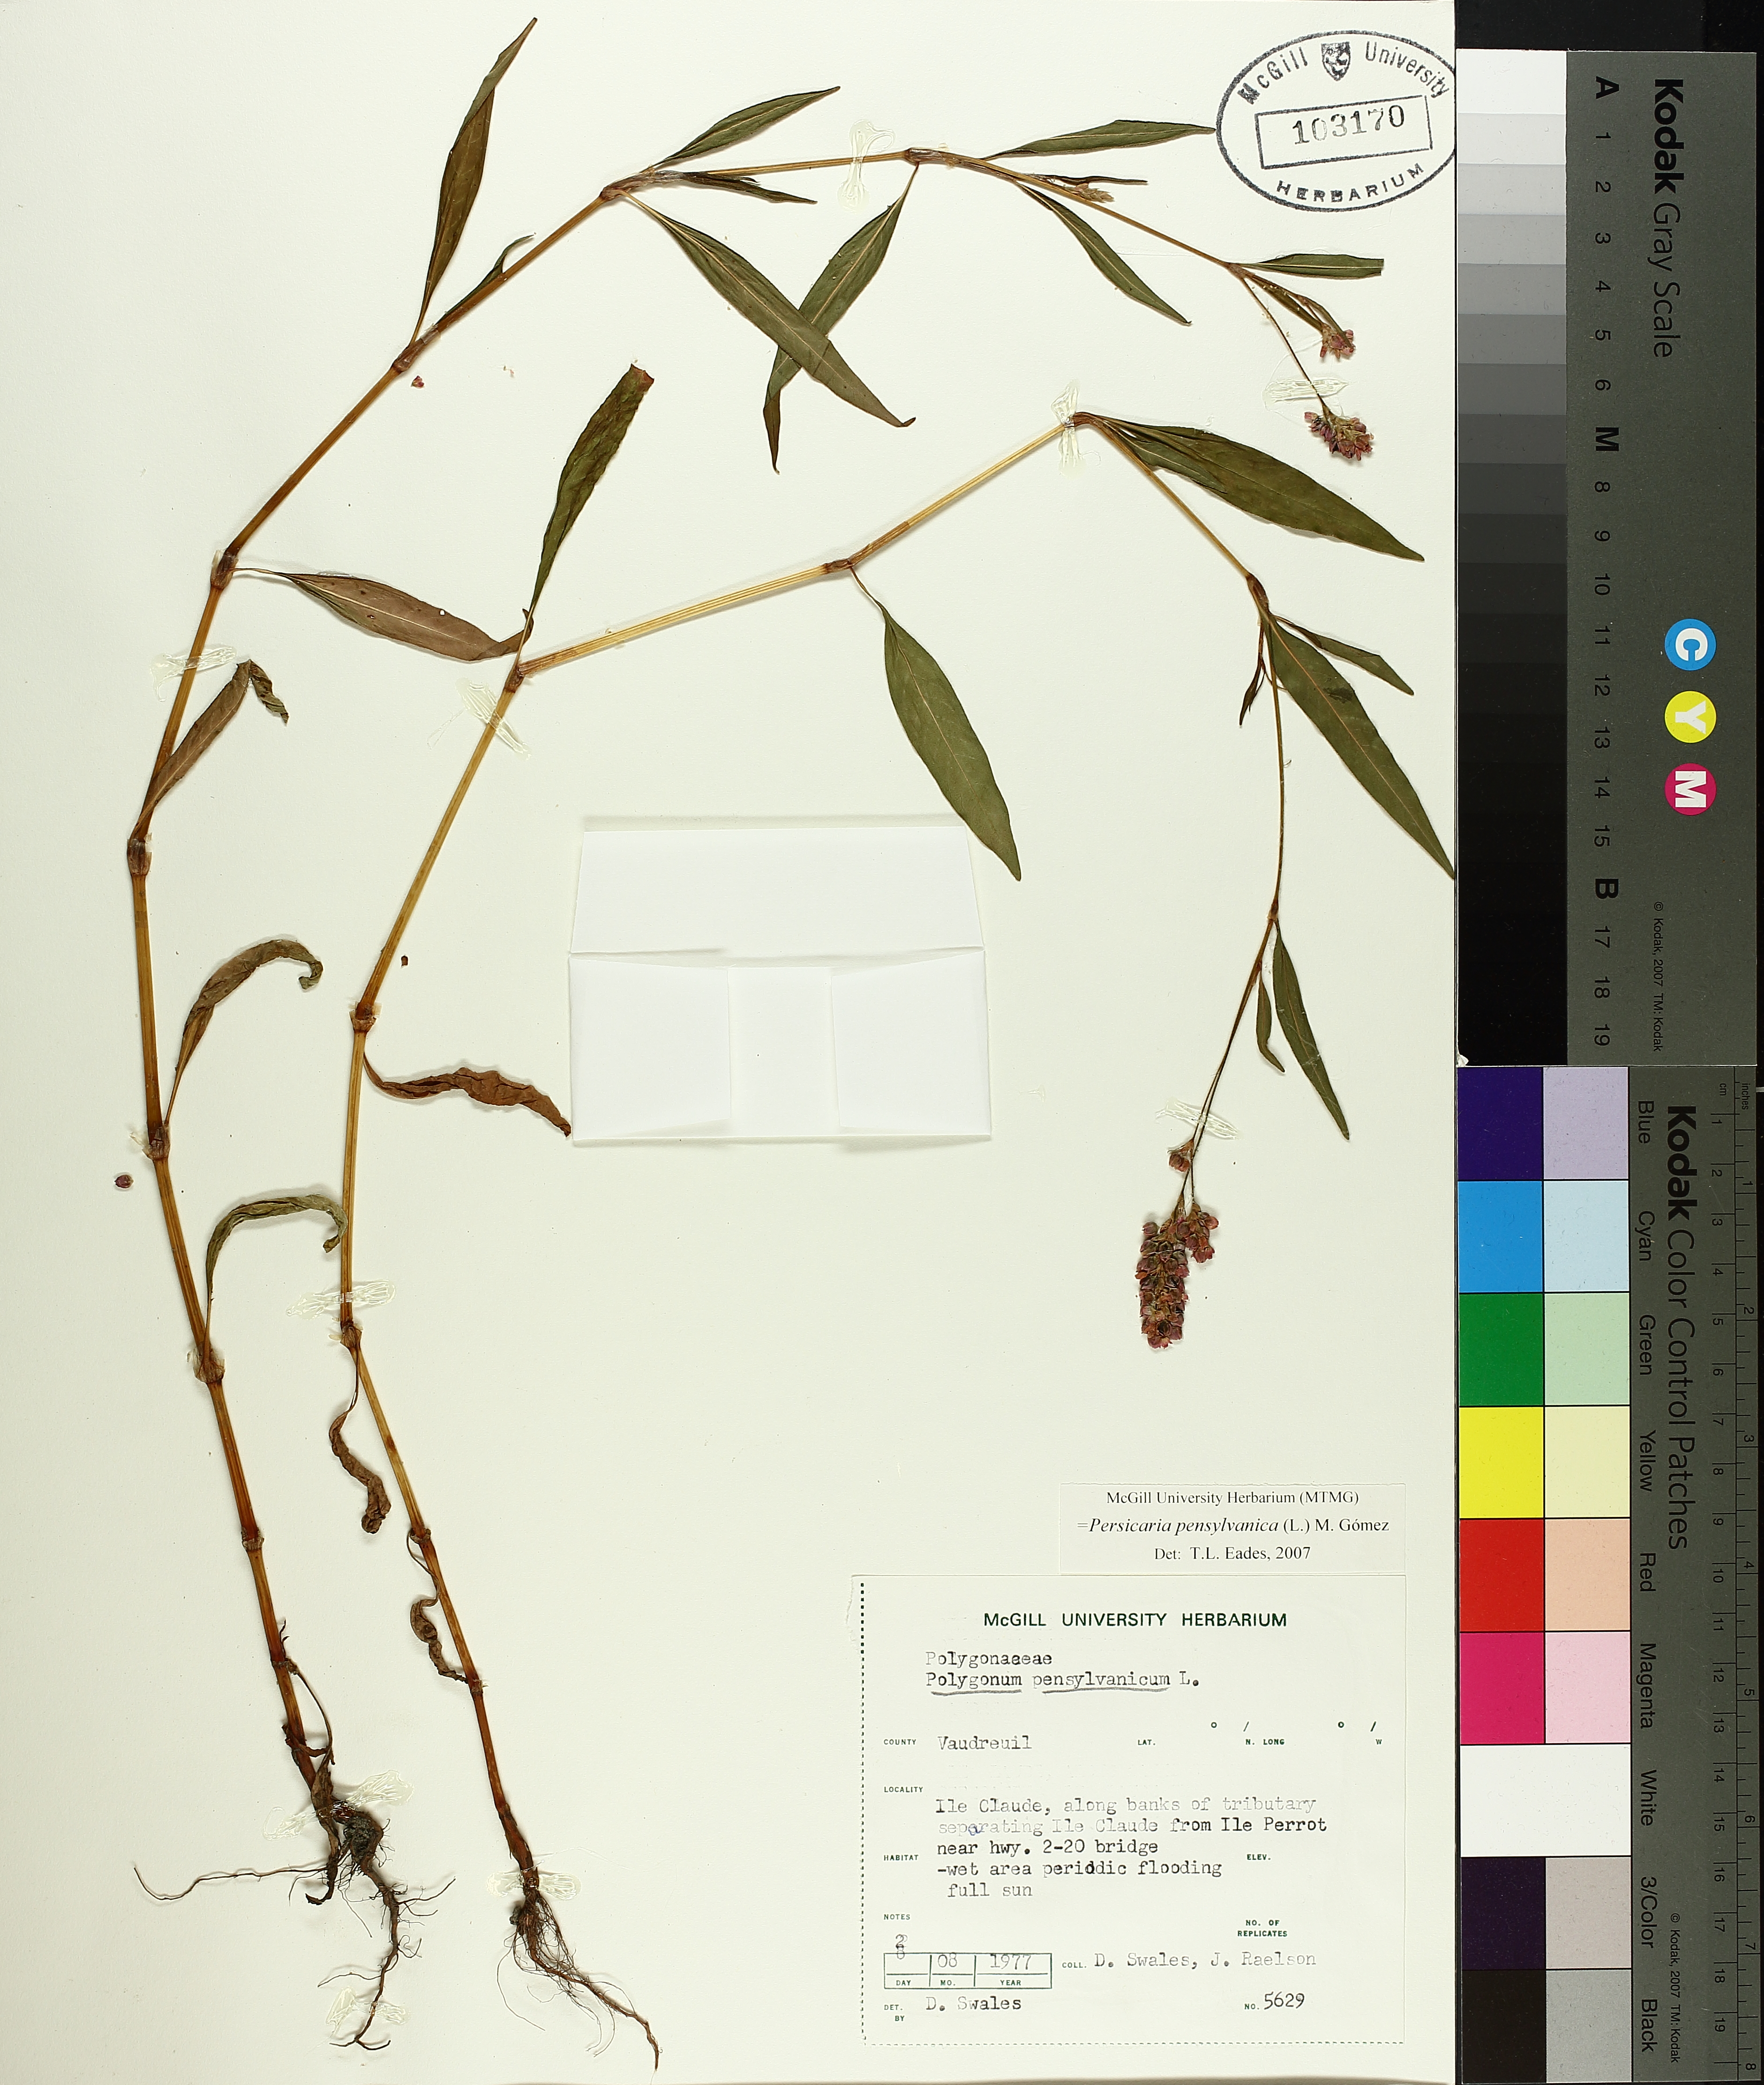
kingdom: Plantae
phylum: Tracheophyta
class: Magnoliopsida
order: Caryophyllales
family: Polygonaceae
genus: Persicaria
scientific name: Persicaria bungeana
